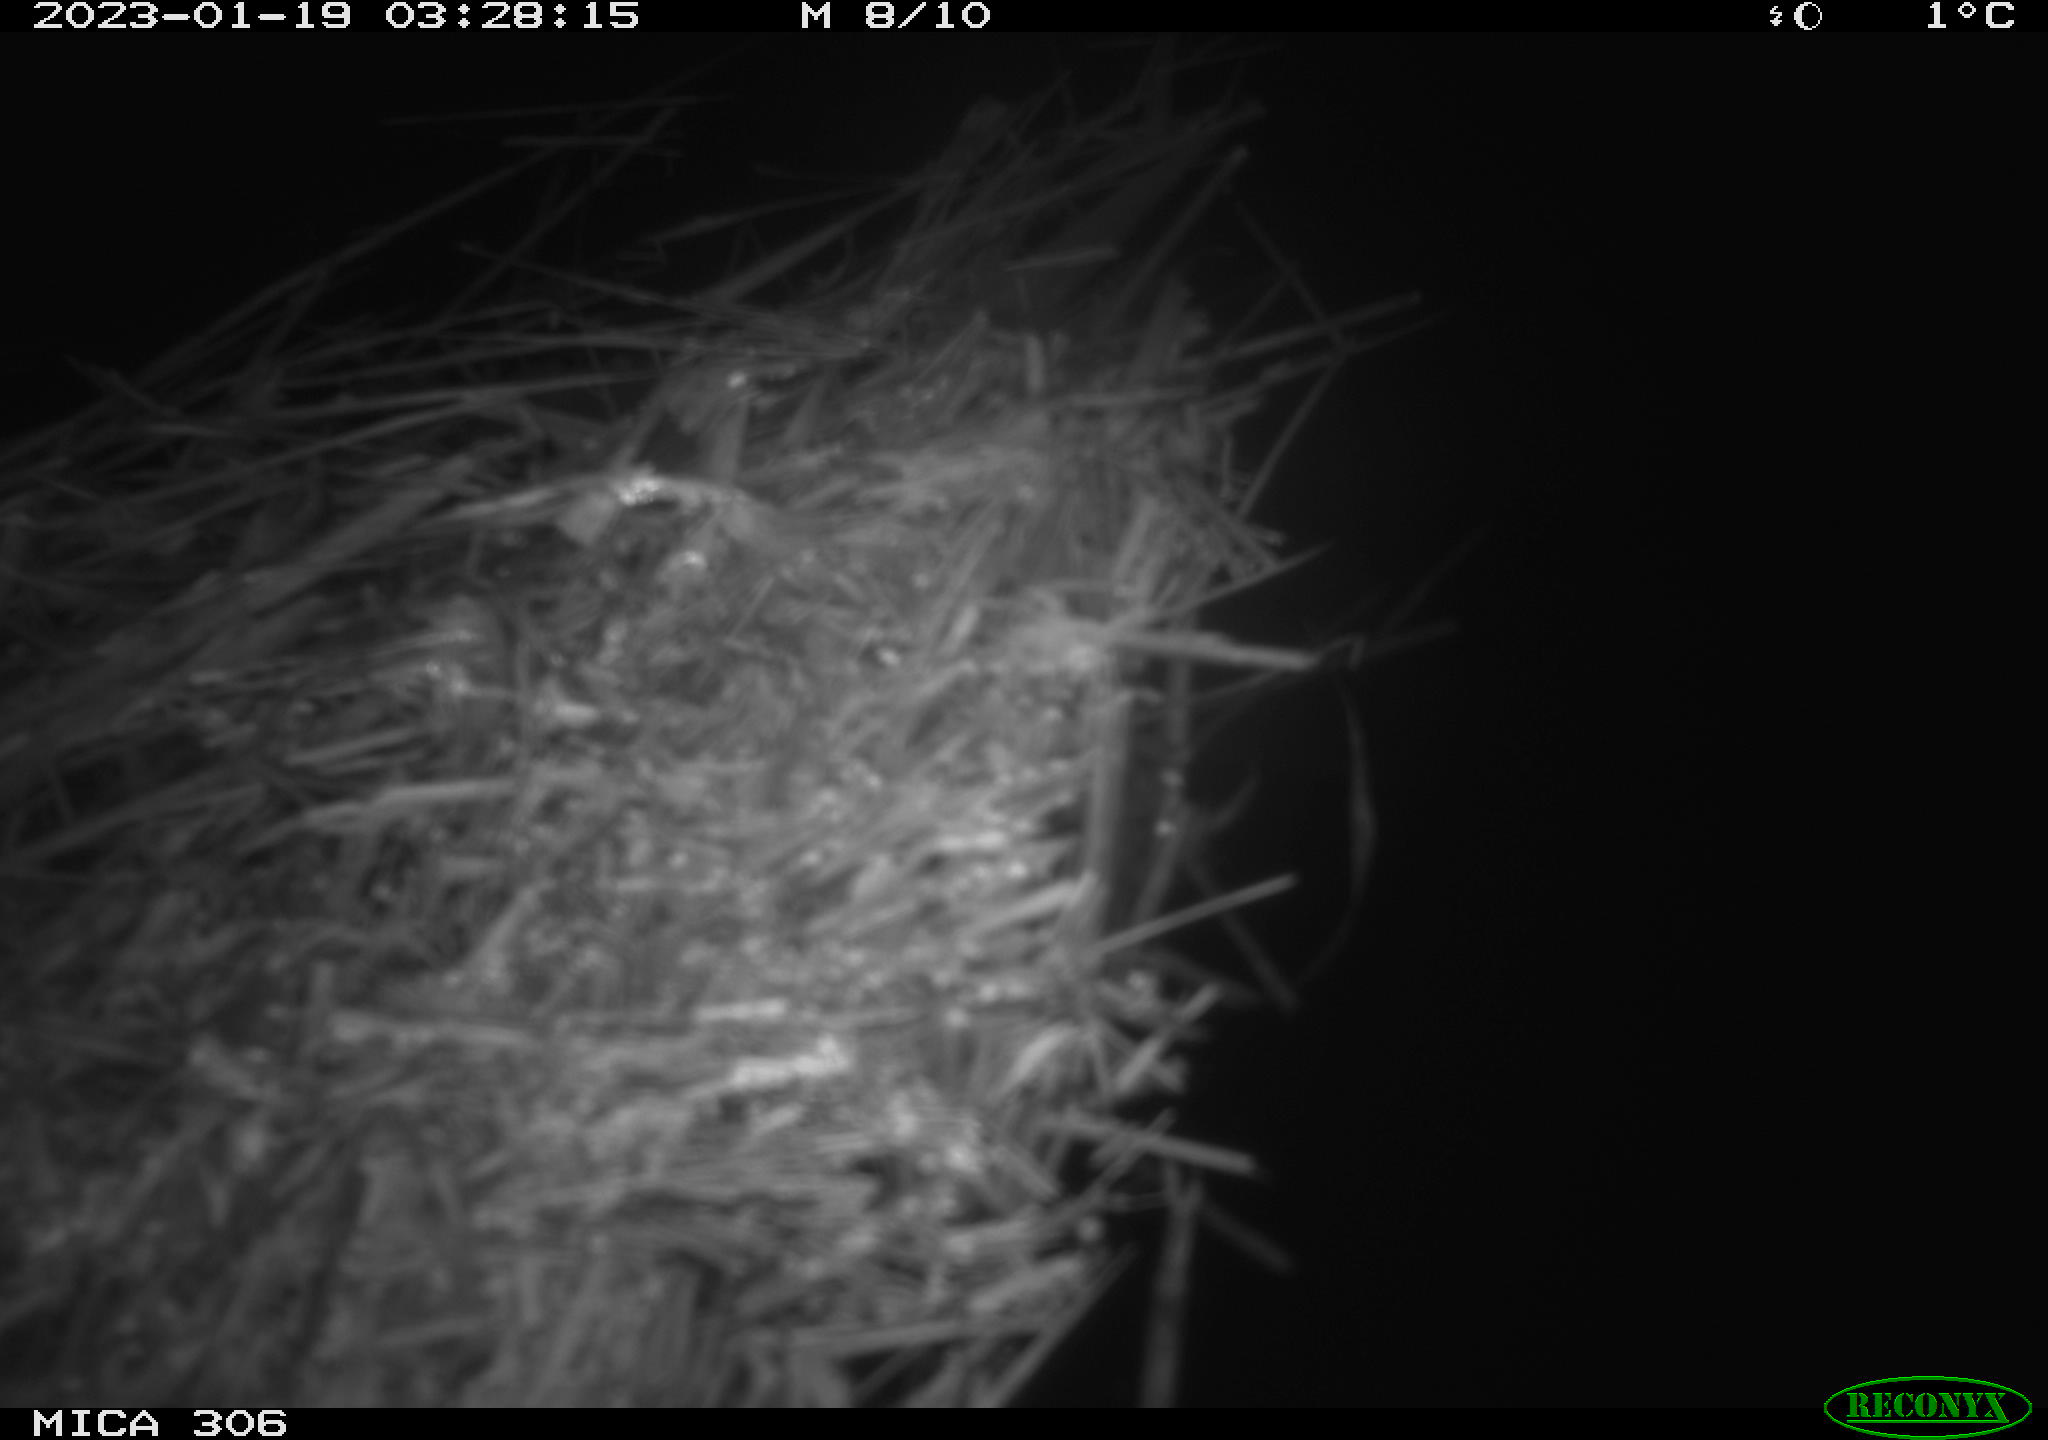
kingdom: Animalia
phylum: Chordata
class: Mammalia
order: Rodentia
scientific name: Rodentia
